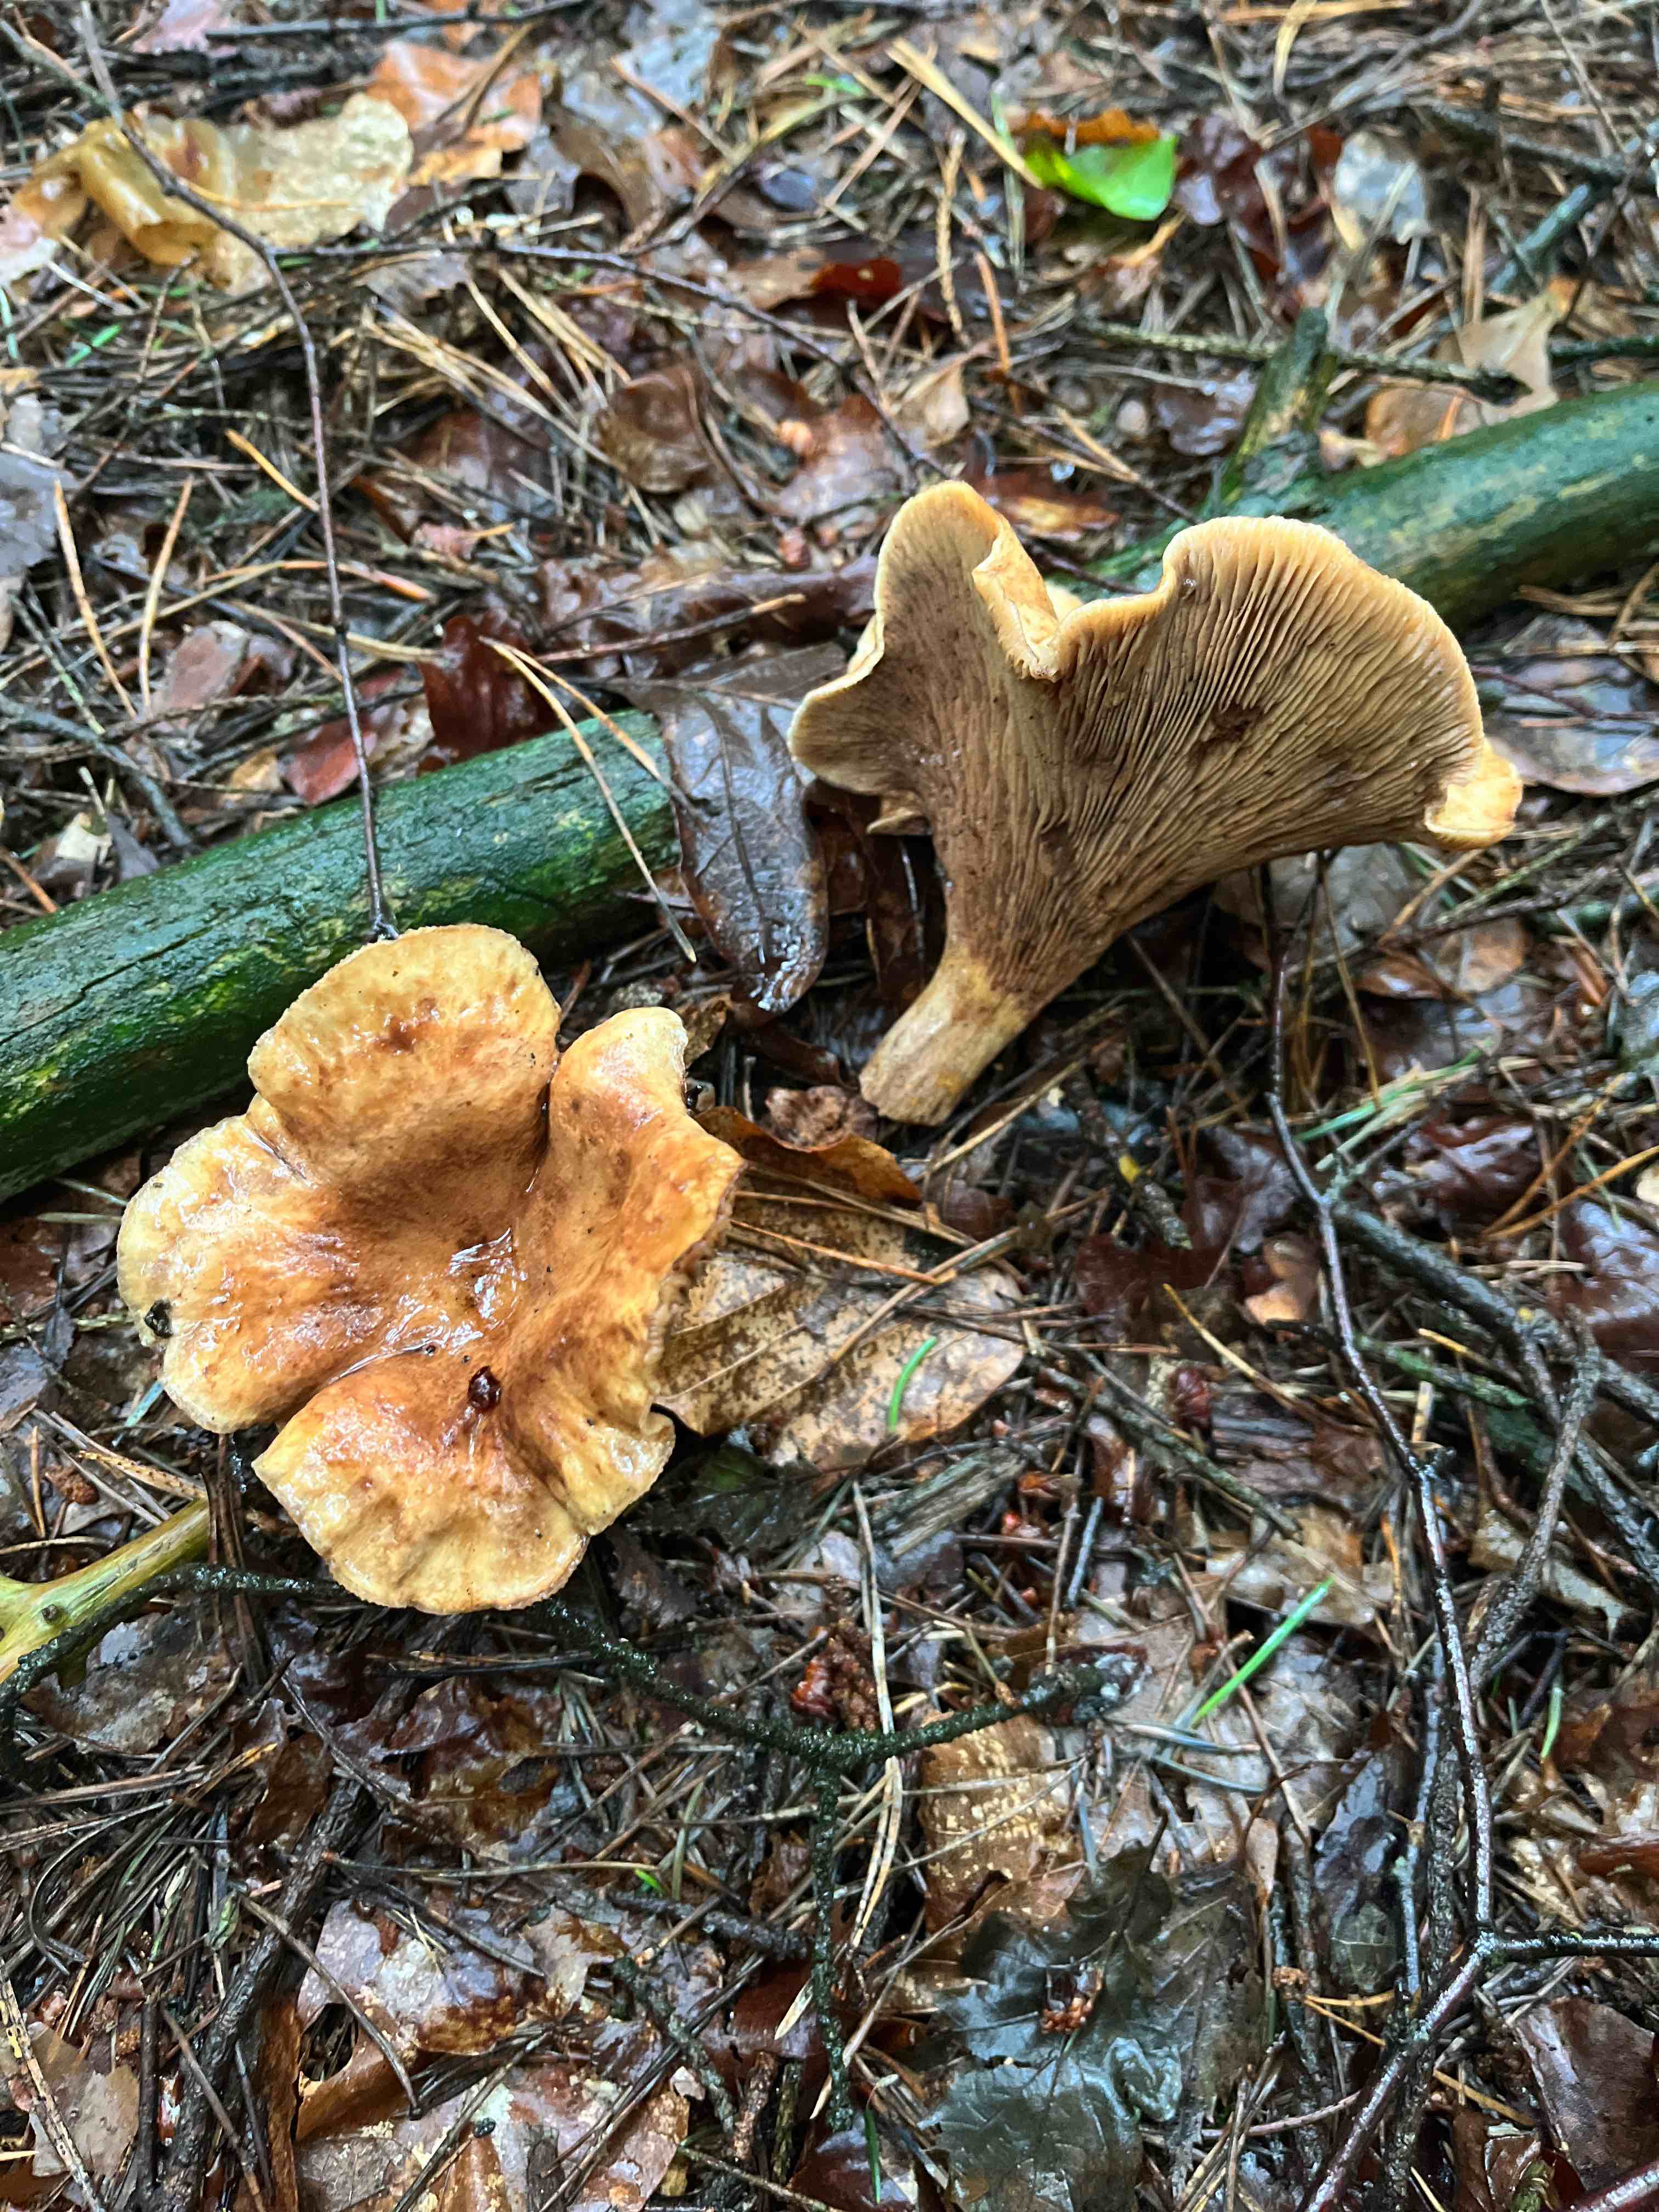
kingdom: Fungi
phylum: Basidiomycota
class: Agaricomycetes
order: Boletales
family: Paxillaceae
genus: Paxillus
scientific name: Paxillus involutus
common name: almindelig netbladhat
